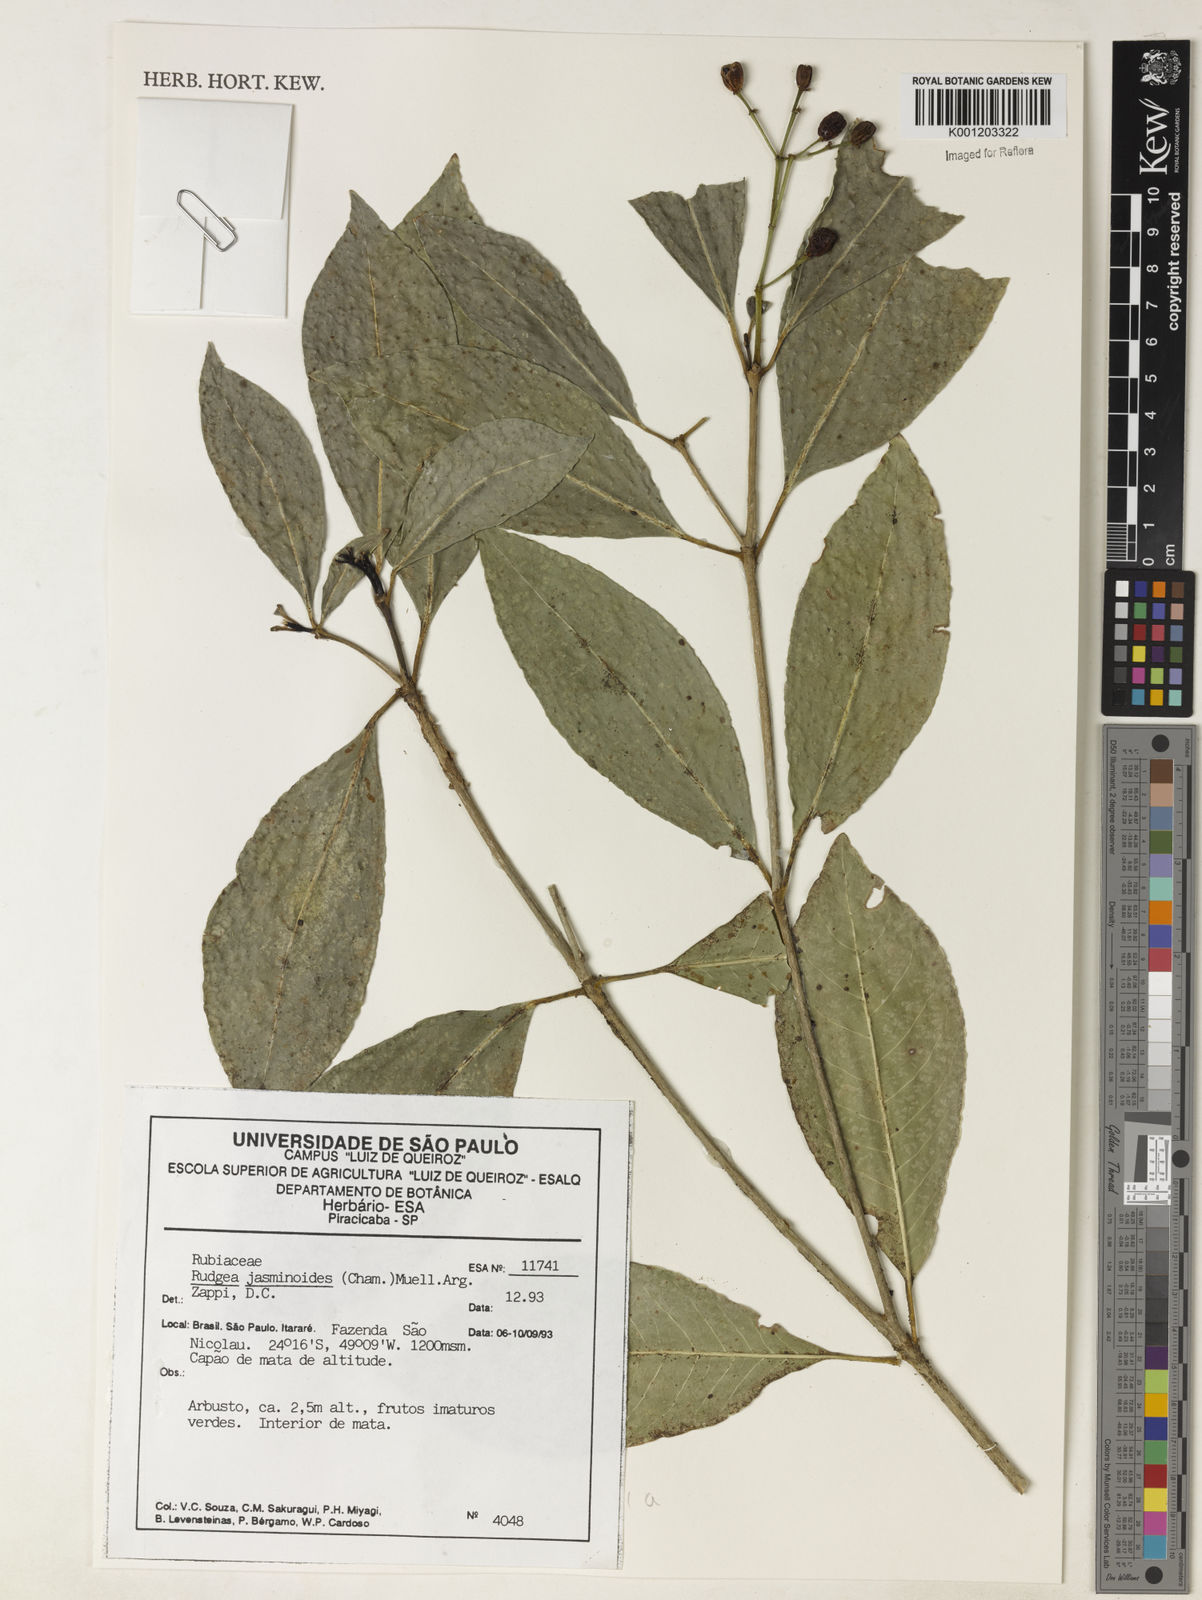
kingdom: Plantae
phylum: Tracheophyta
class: Magnoliopsida
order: Gentianales
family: Rubiaceae
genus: Rudgea
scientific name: Rudgea
